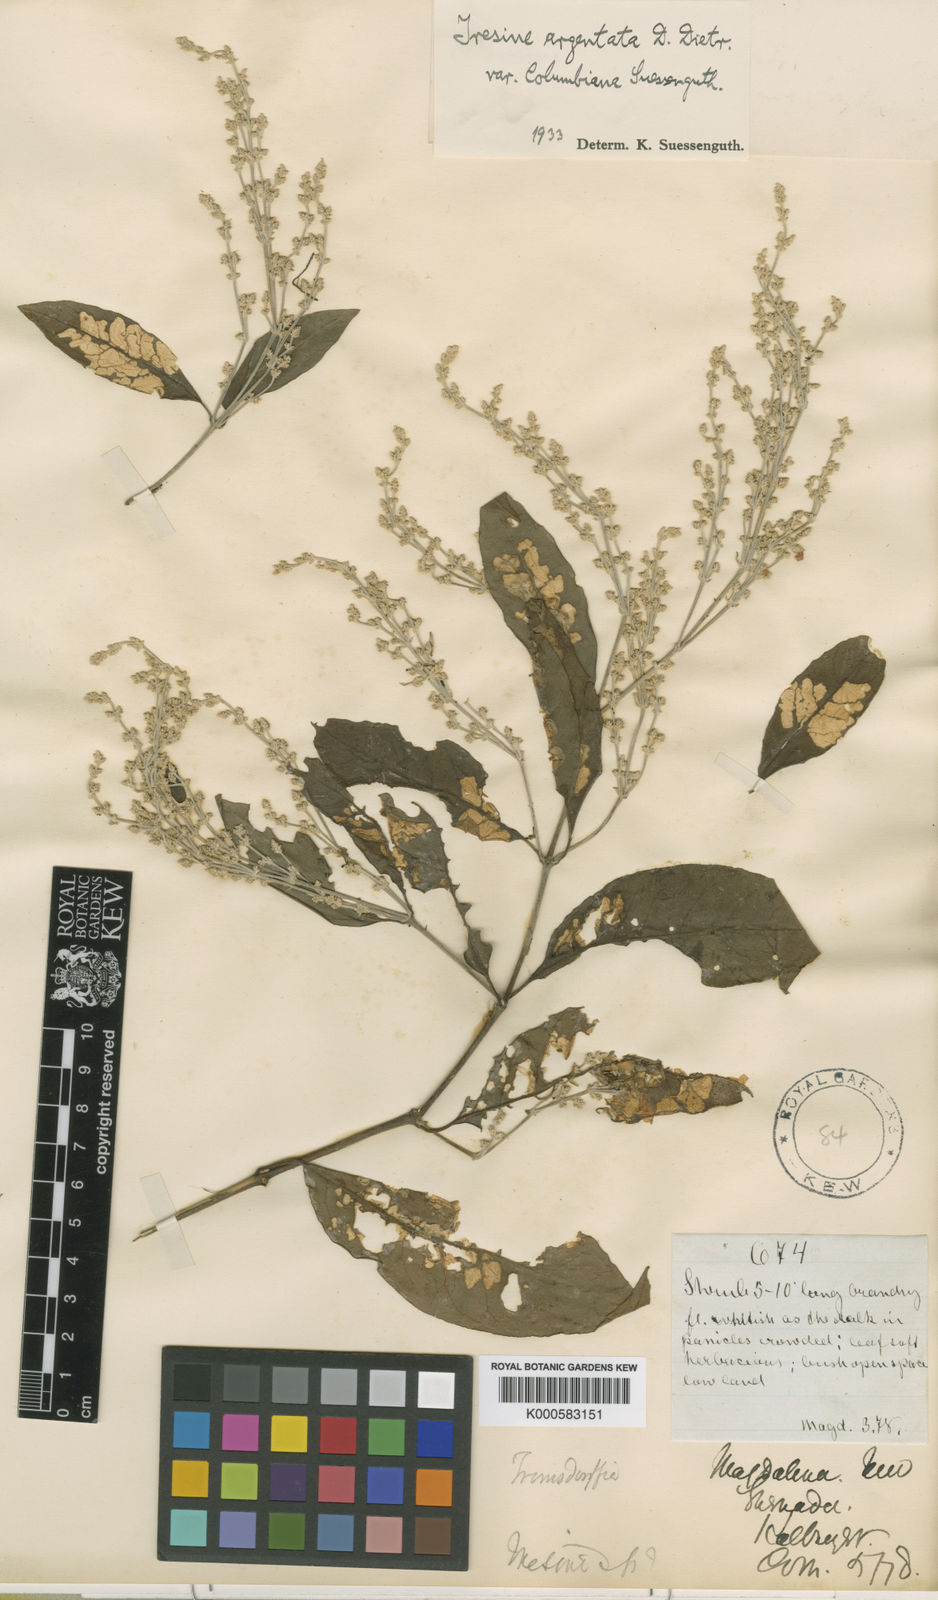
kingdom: Plantae
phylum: Tracheophyta
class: Magnoliopsida
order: Caryophyllales
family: Amaranthaceae
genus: Pedersenia
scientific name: Pedersenia argentata
